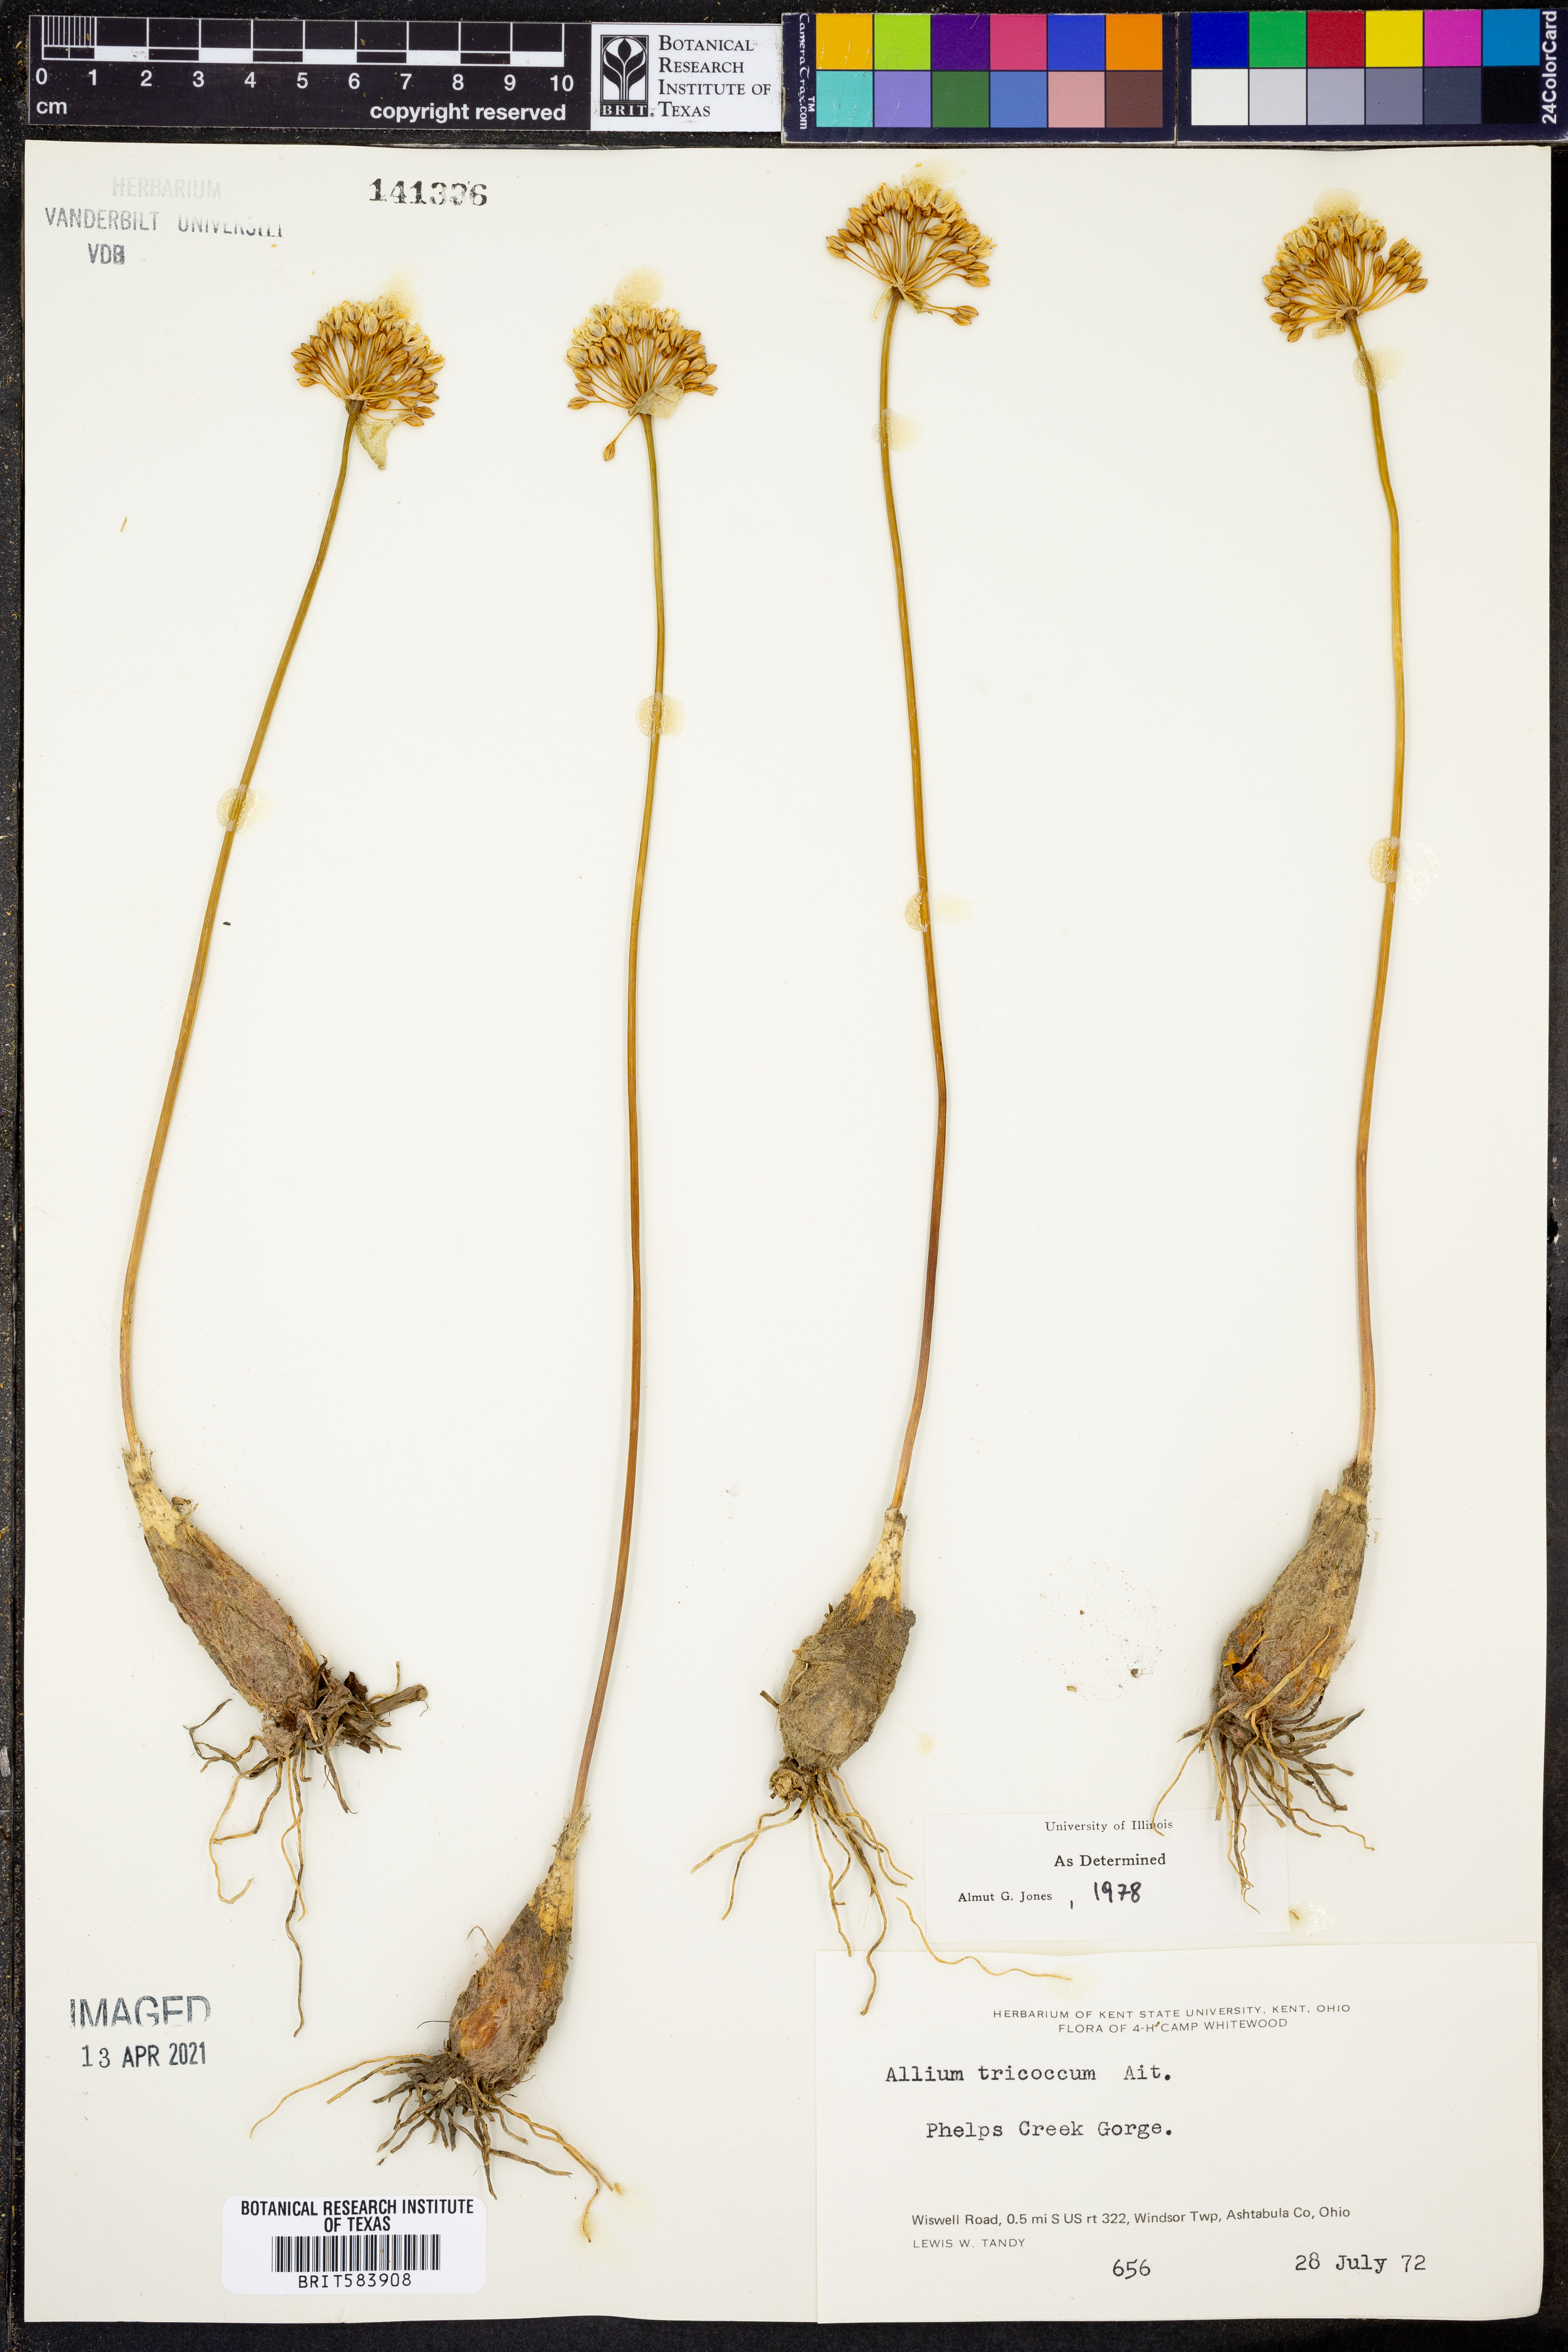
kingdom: Plantae
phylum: Tracheophyta
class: Liliopsida
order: Asparagales
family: Amaryllidaceae
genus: Allium
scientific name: Allium tricoccum
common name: Ramp
